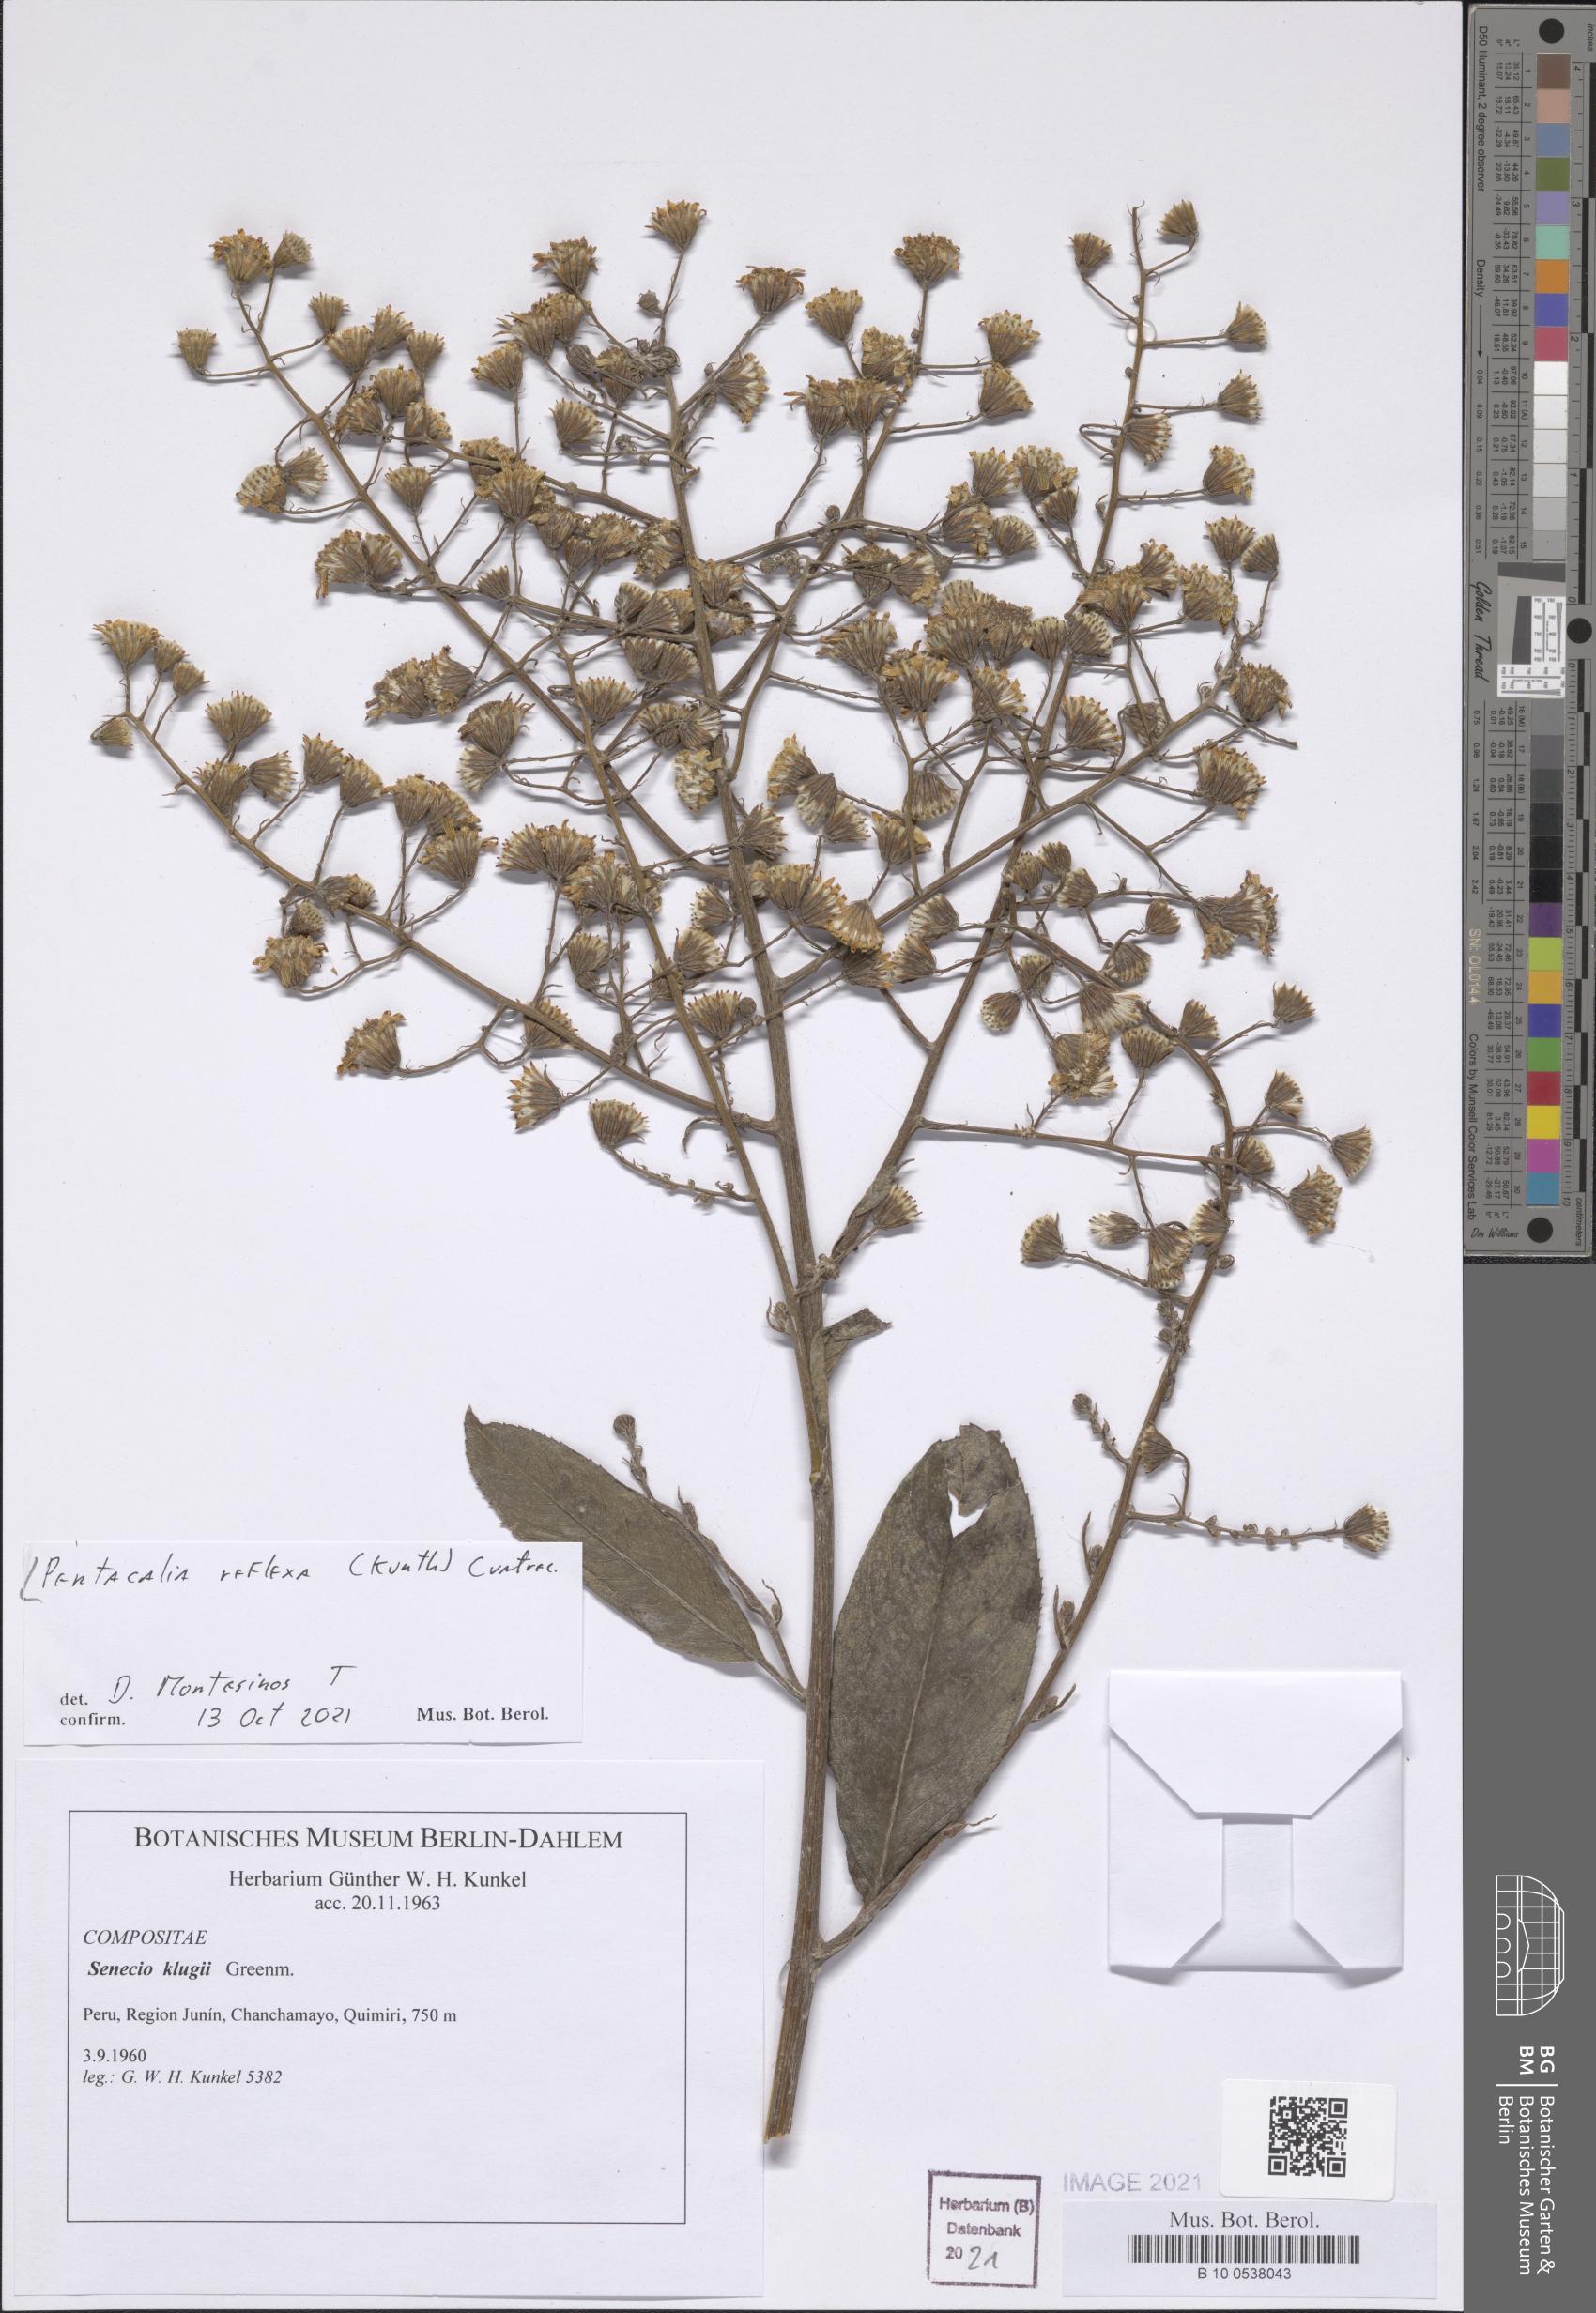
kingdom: Plantae
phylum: Tracheophyta
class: Magnoliopsida
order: Asterales
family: Asteraceae
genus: Dendrophorbium
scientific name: Dendrophorbium reflexum
